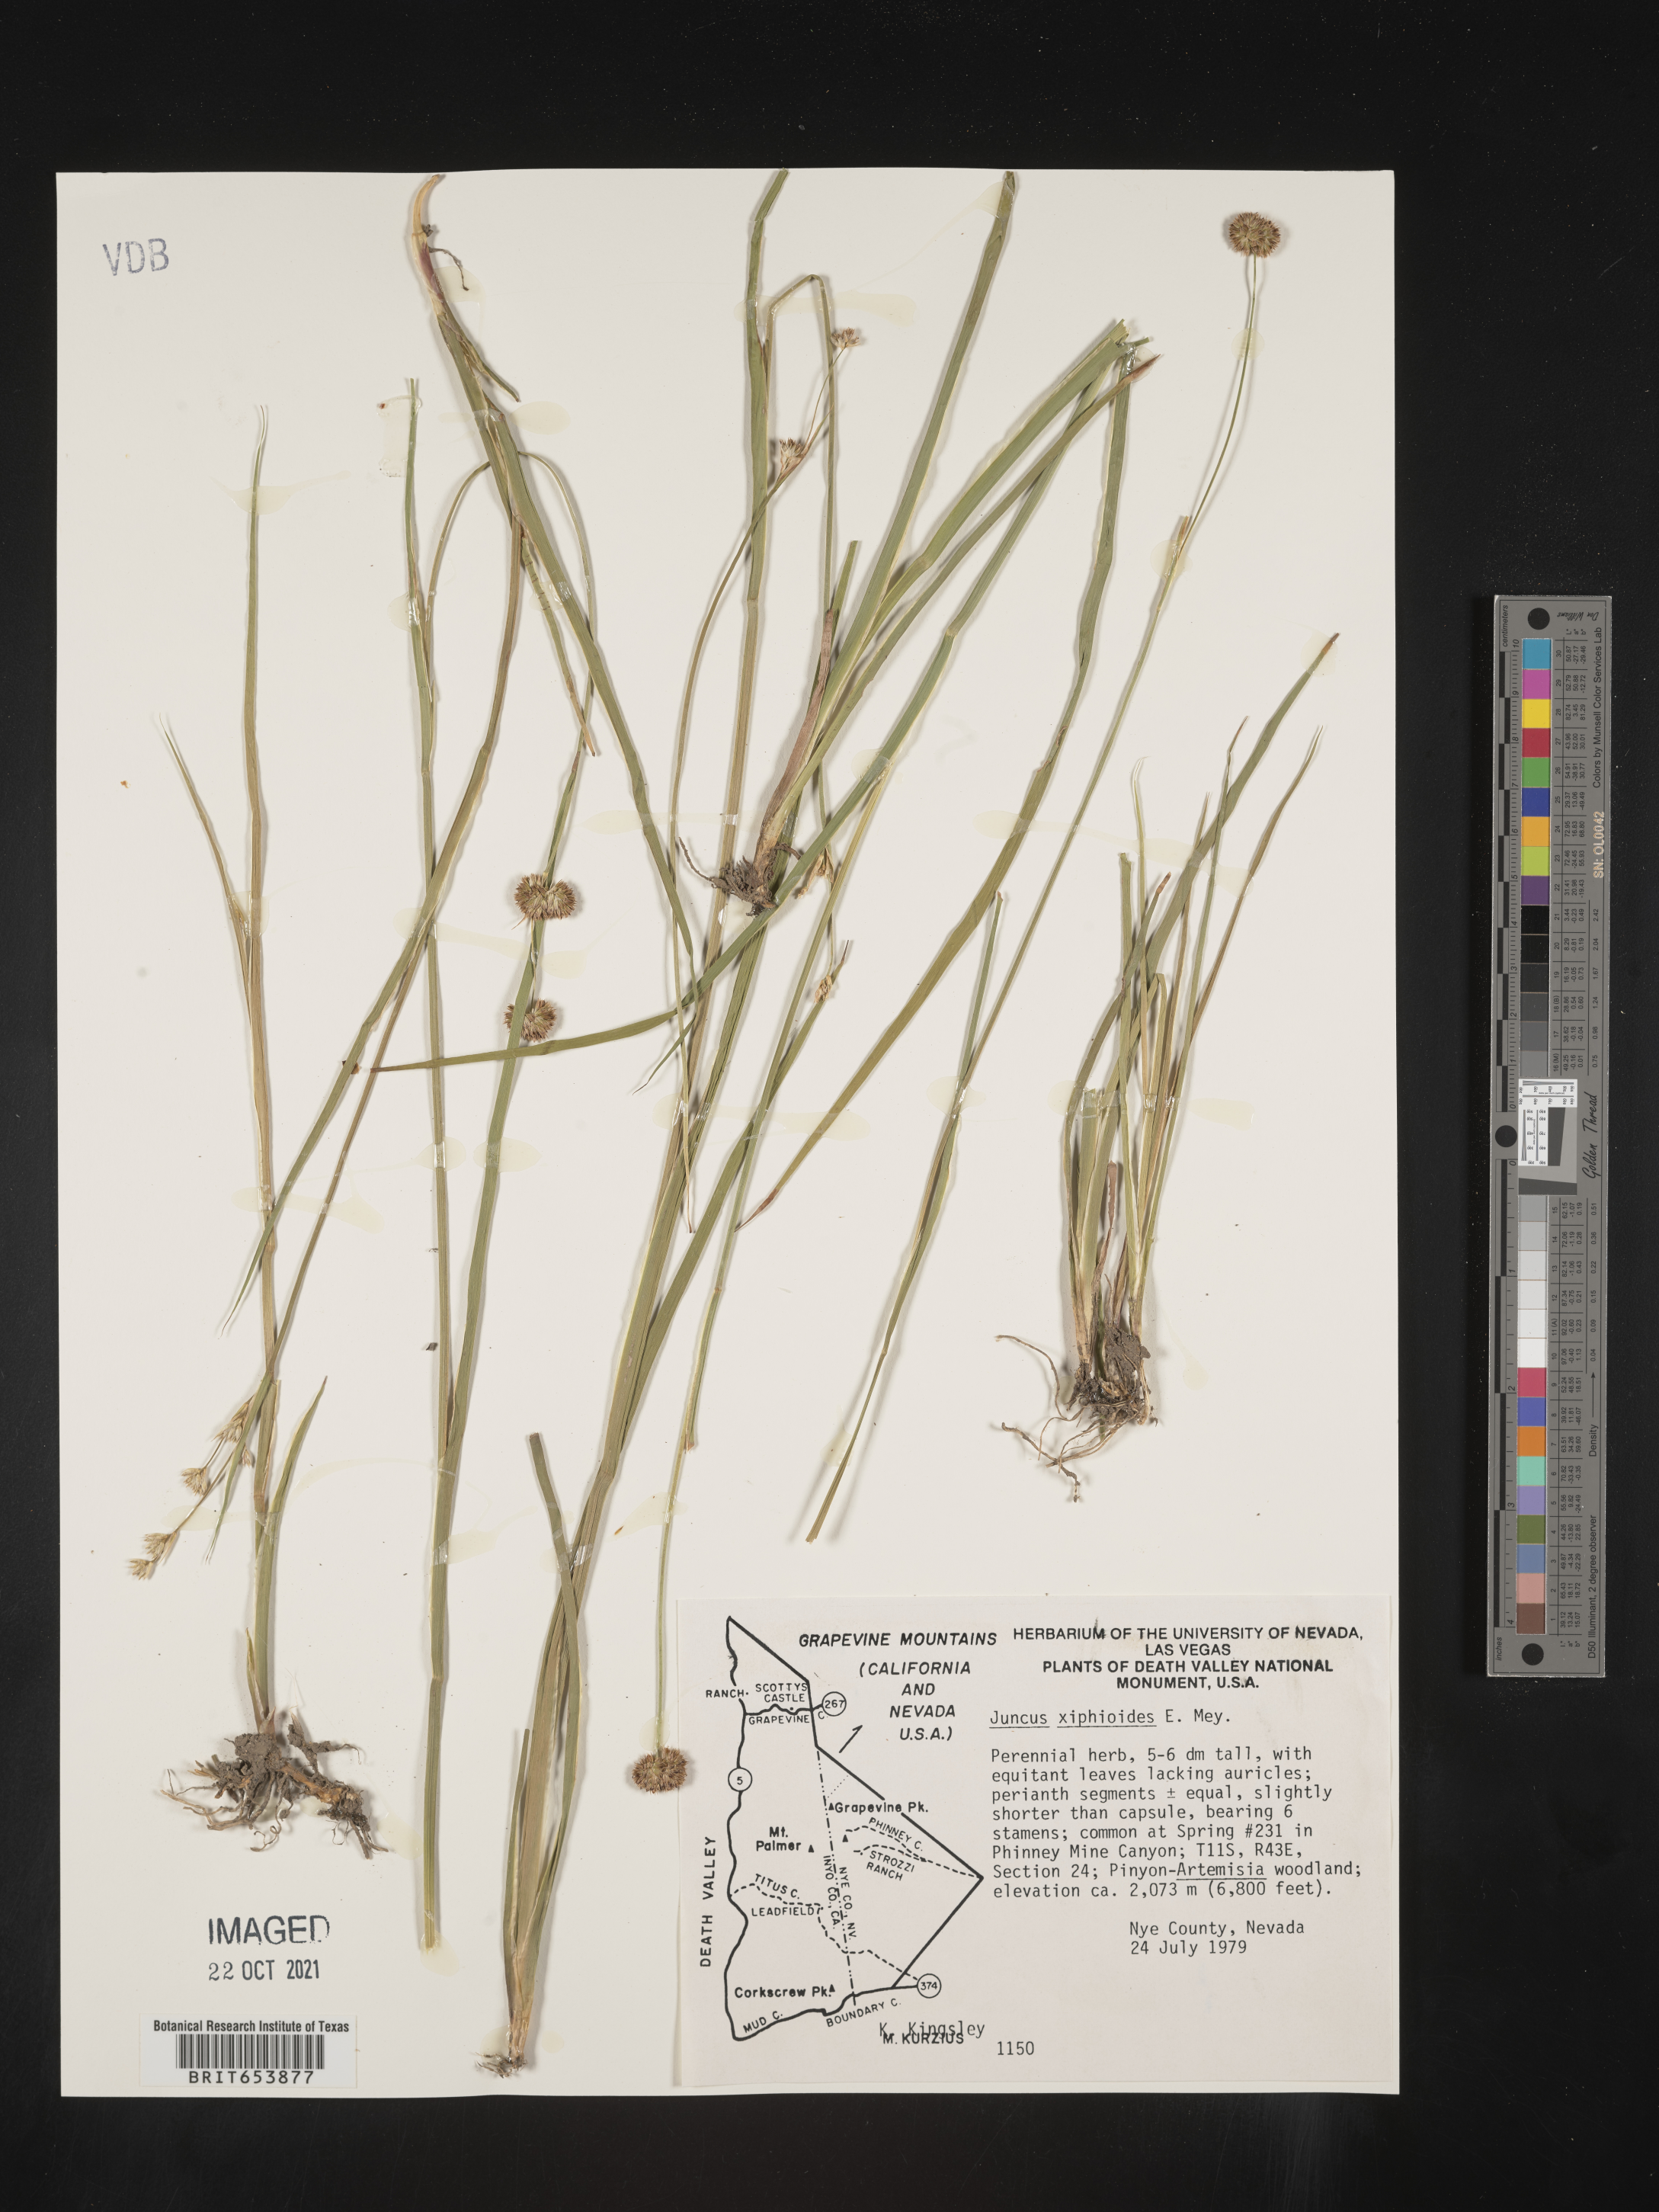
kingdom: Plantae
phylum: Tracheophyta
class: Liliopsida
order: Poales
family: Juncaceae
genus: Juncus
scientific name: Juncus xiphioides
